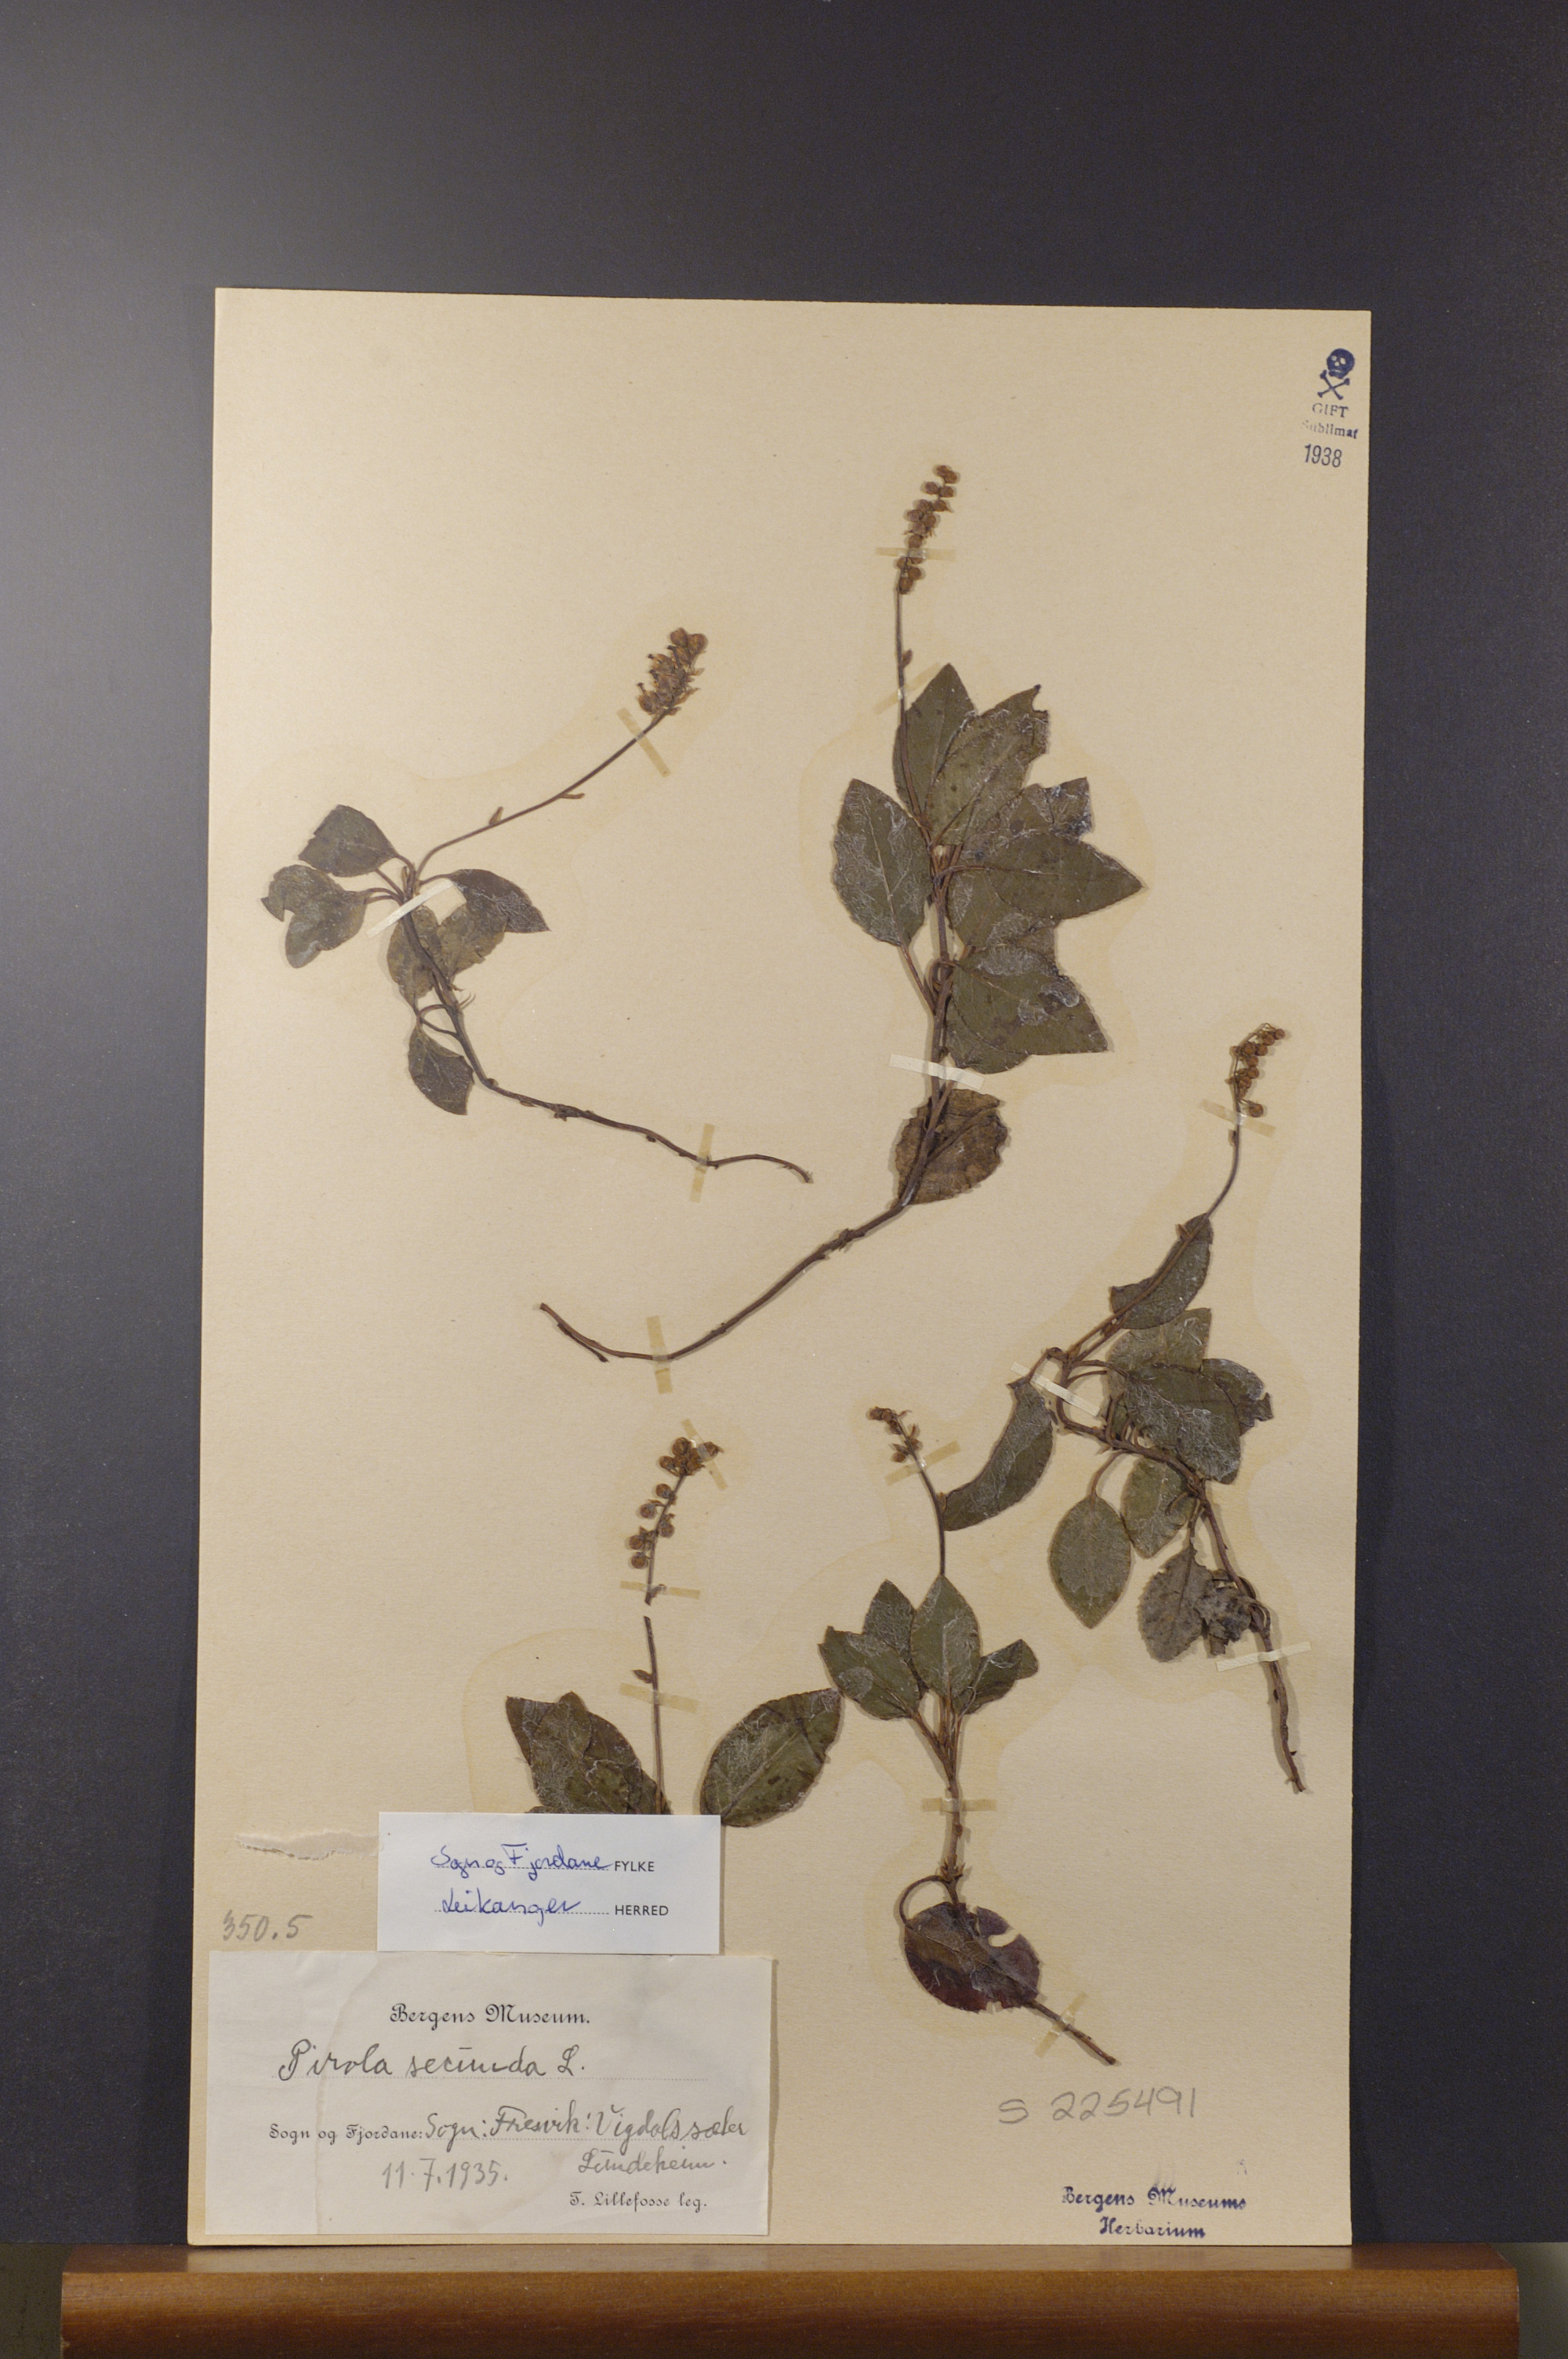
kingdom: Plantae
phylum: Tracheophyta
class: Magnoliopsida
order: Ericales
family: Ericaceae
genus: Orthilia
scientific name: Orthilia secunda
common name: One-sided orthilia
